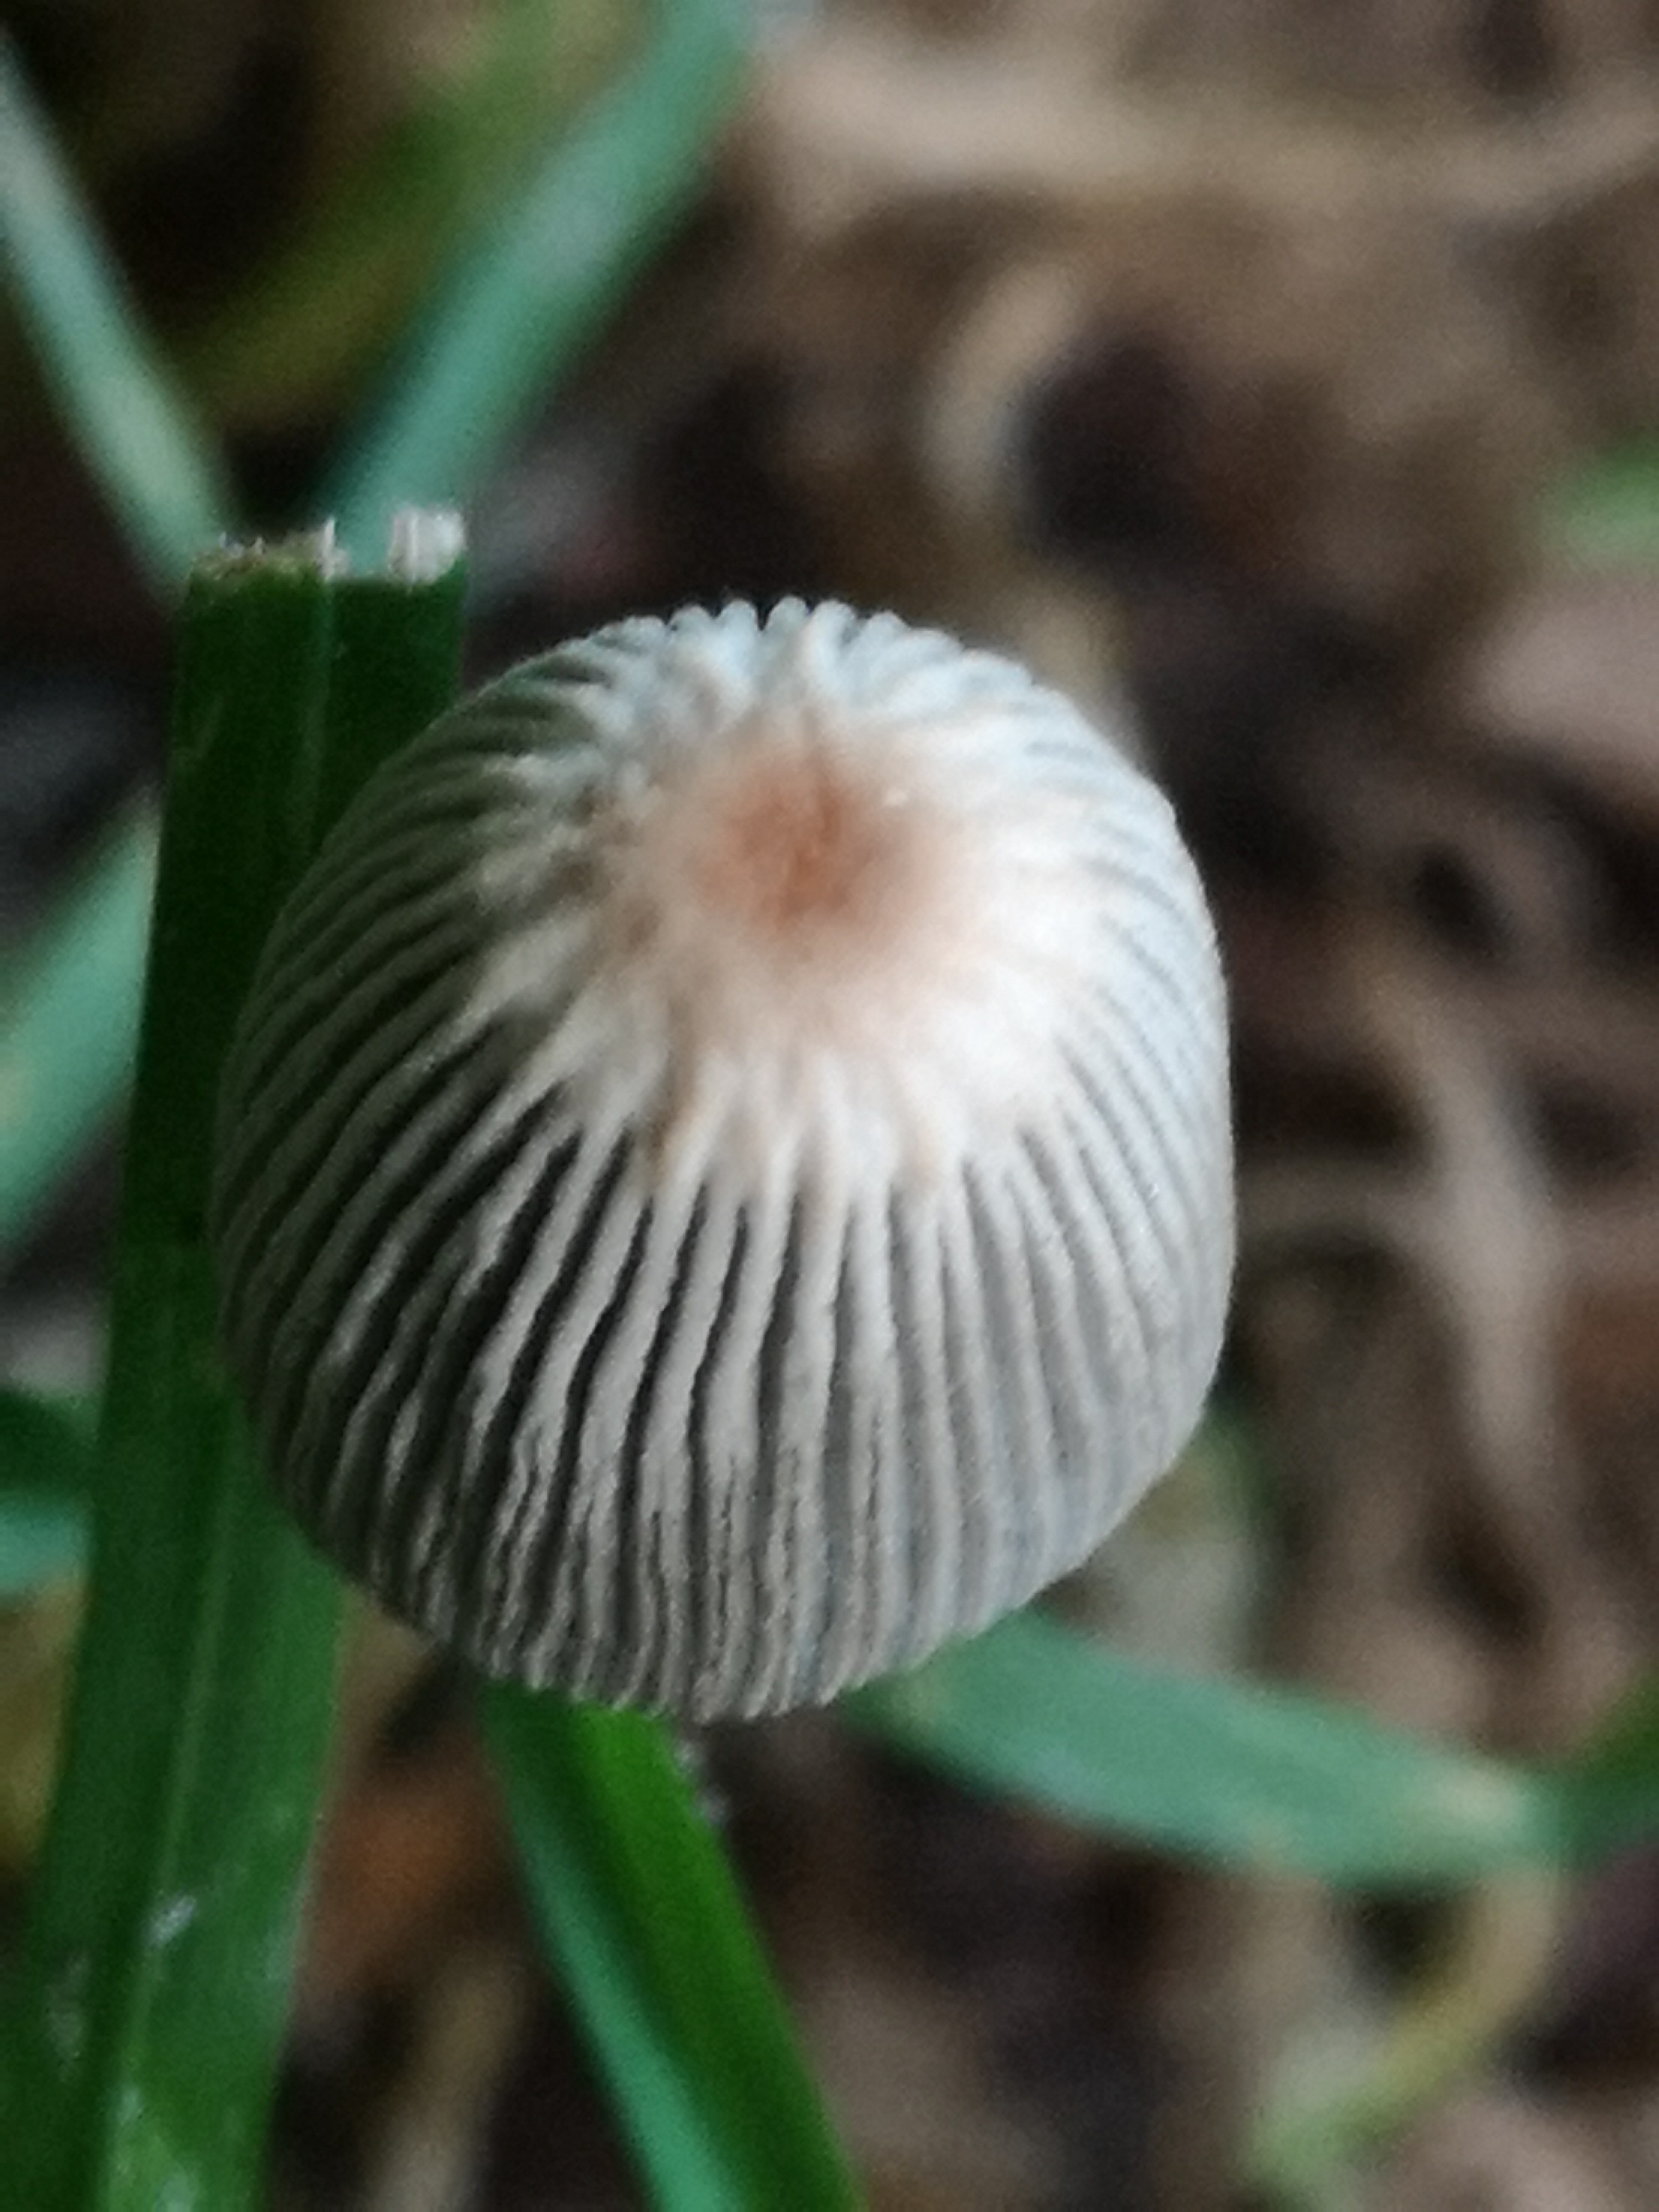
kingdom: Fungi
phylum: Basidiomycota
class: Agaricomycetes
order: Agaricales
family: Psathyrellaceae
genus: Parasola
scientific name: Parasola
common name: hjulhat
